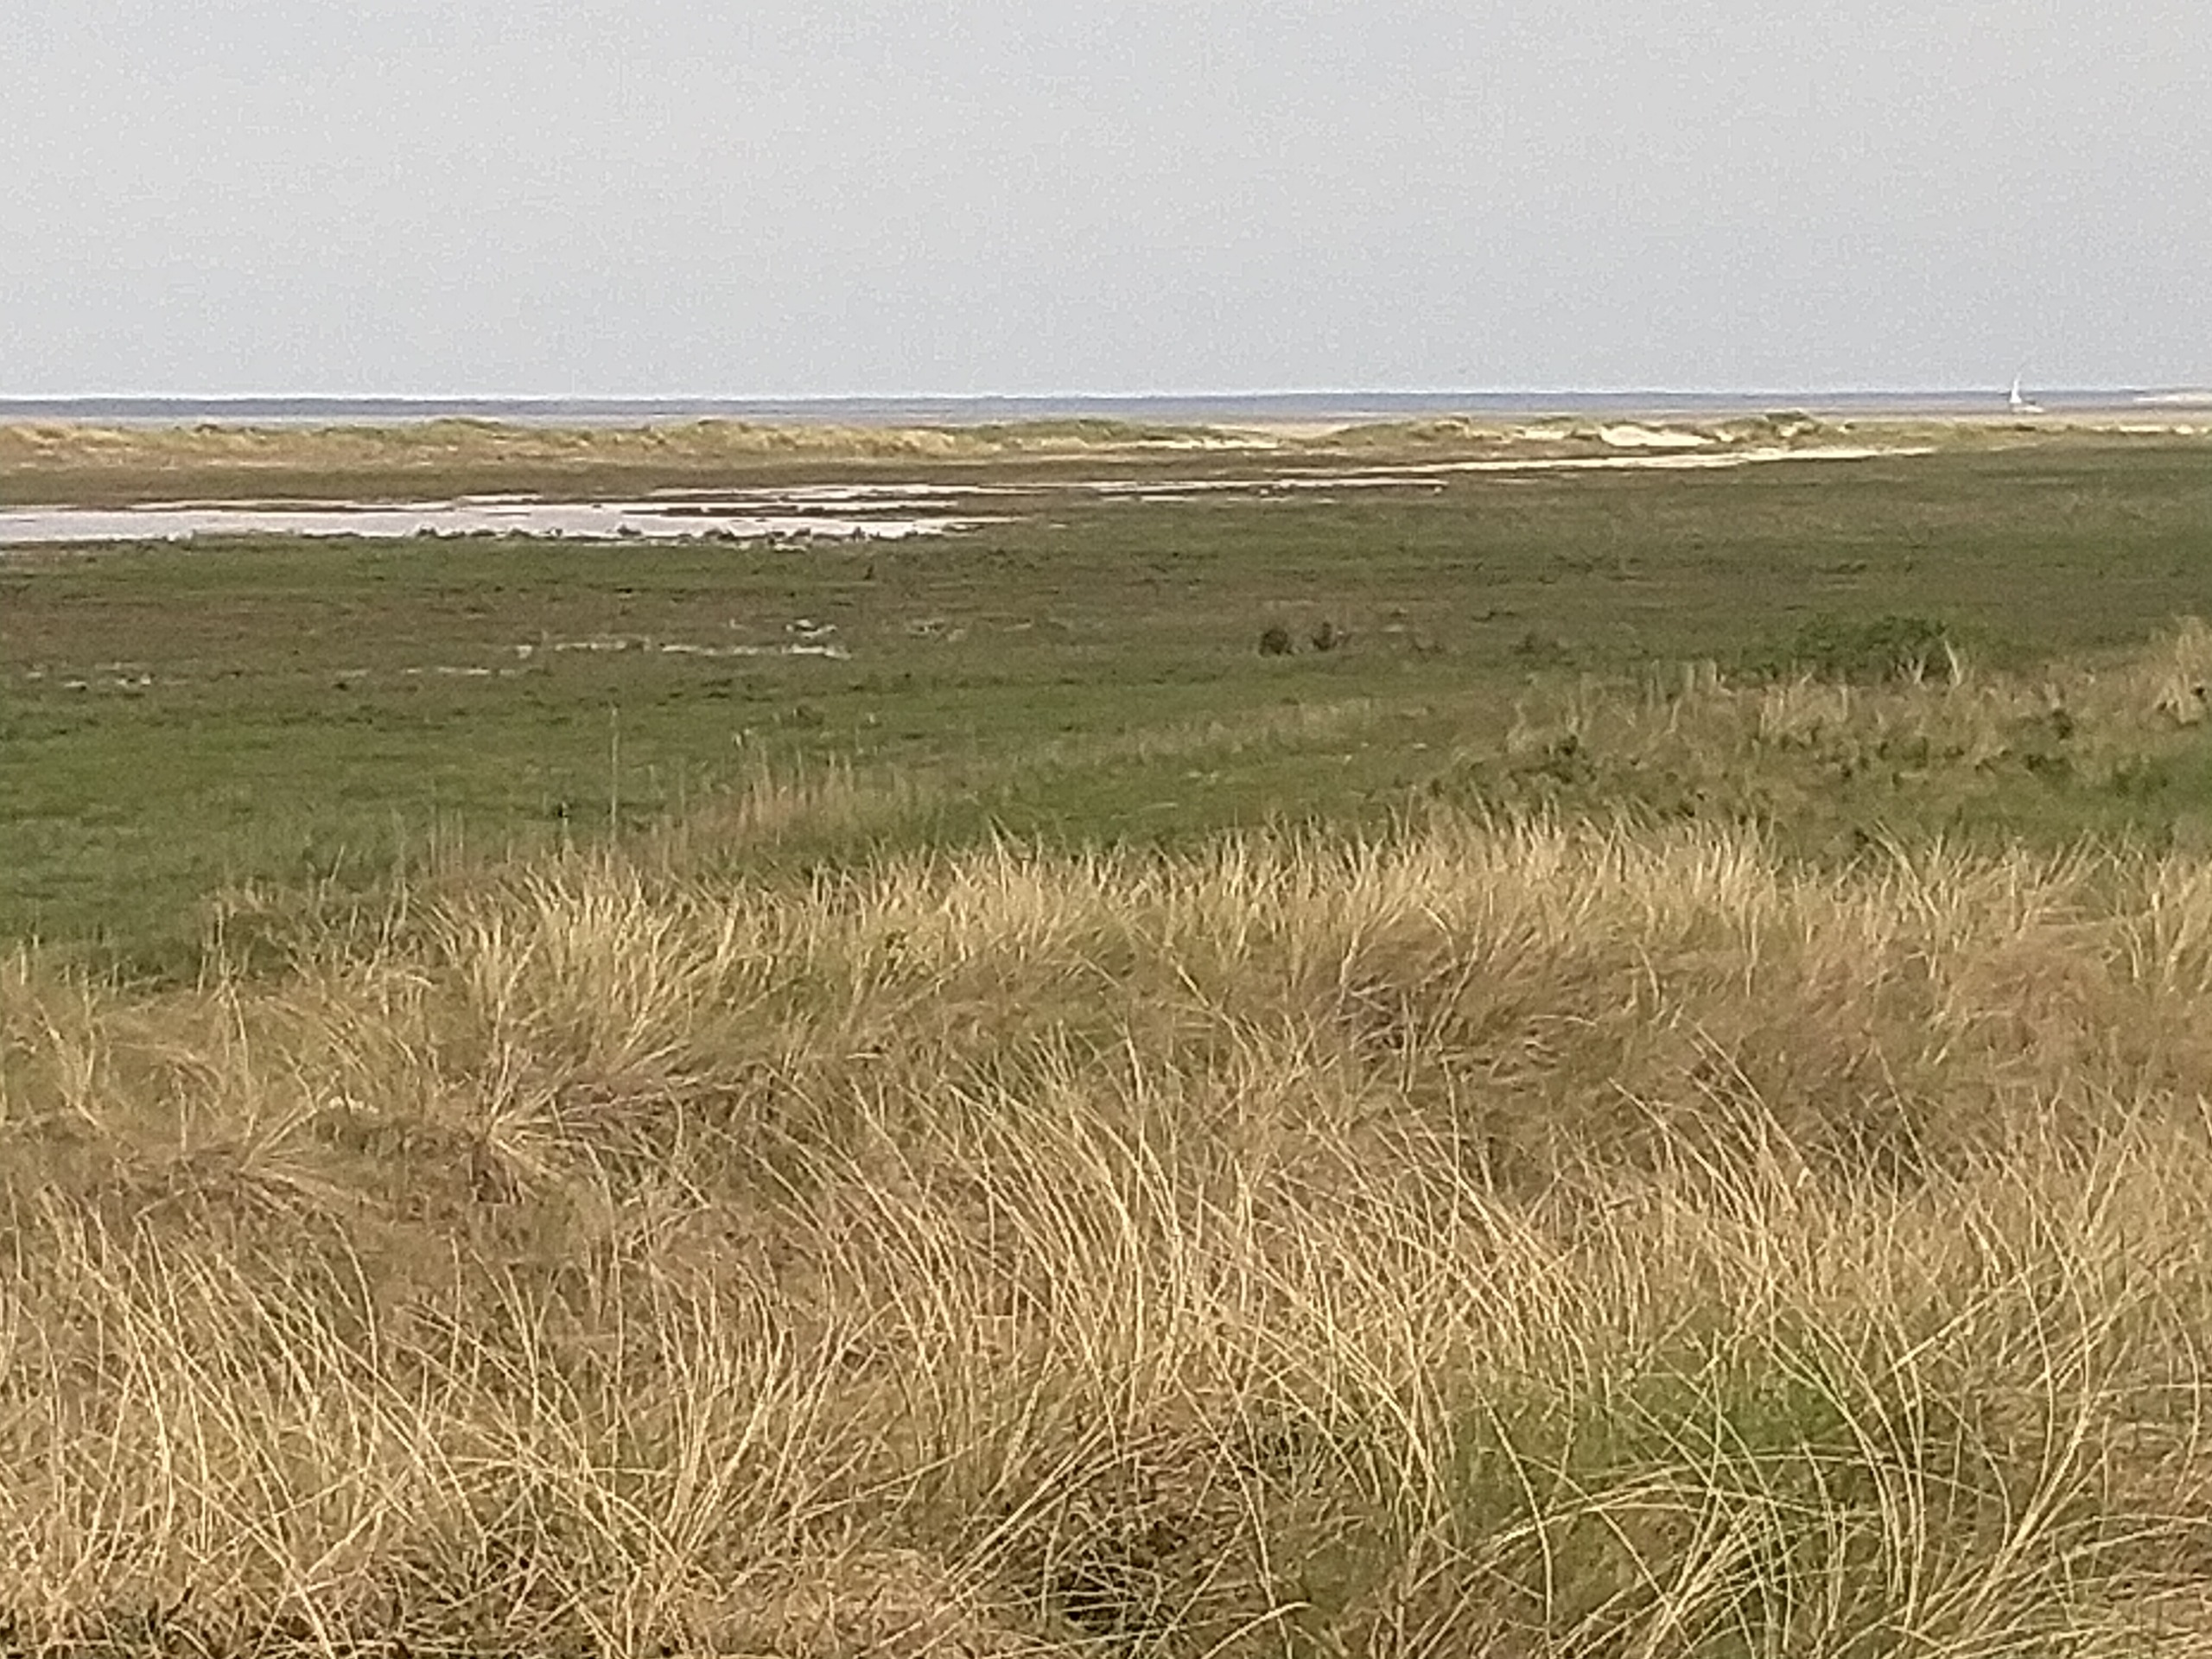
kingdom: Animalia
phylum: Chordata
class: Aves
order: Charadriiformes
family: Charadriidae
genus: Vanellus
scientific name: Vanellus vanellus
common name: Vibe
